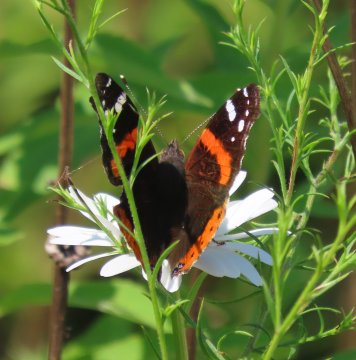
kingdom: Animalia
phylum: Arthropoda
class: Insecta
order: Lepidoptera
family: Nymphalidae
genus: Vanessa
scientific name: Vanessa atalanta
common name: Red Admiral
